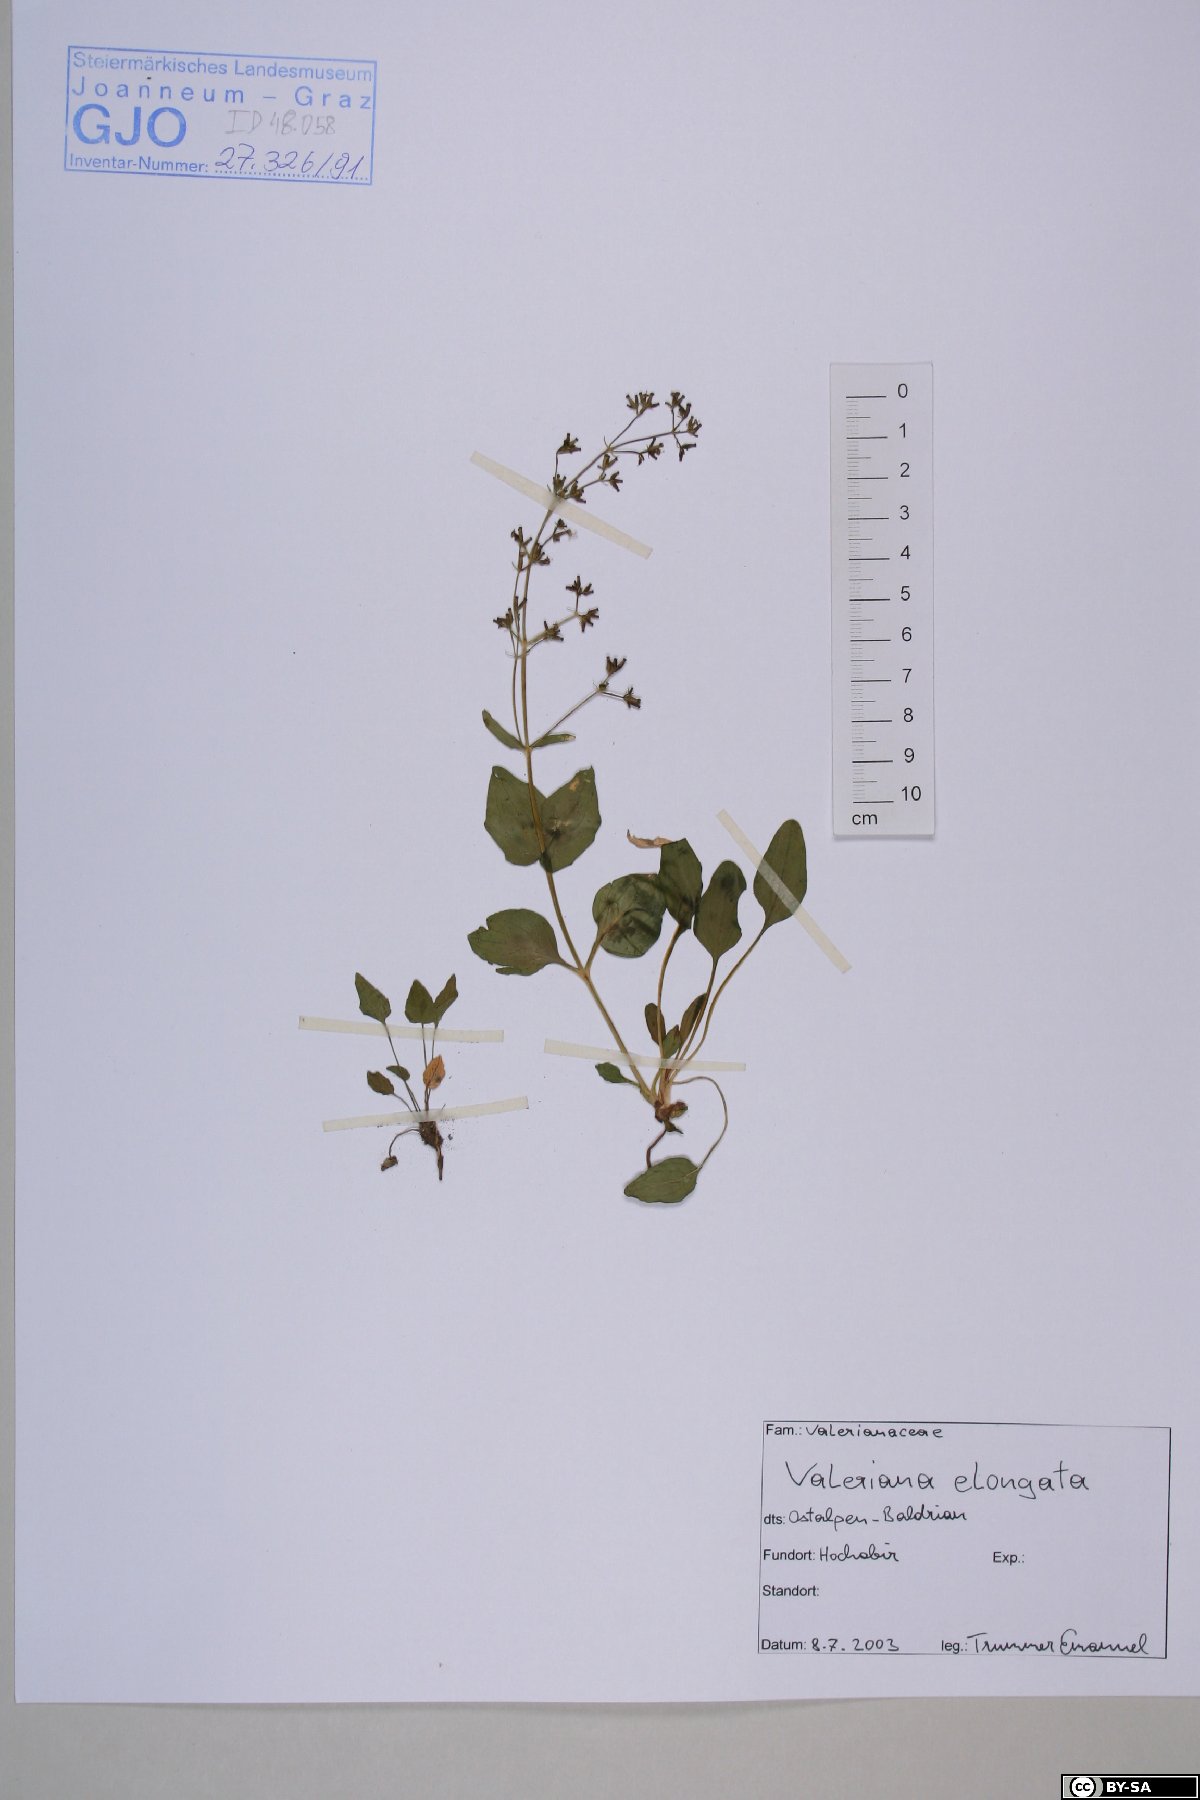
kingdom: Plantae
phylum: Tracheophyta
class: Magnoliopsida
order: Dipsacales
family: Caprifoliaceae
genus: Valeriana
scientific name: Valeriana elongata
